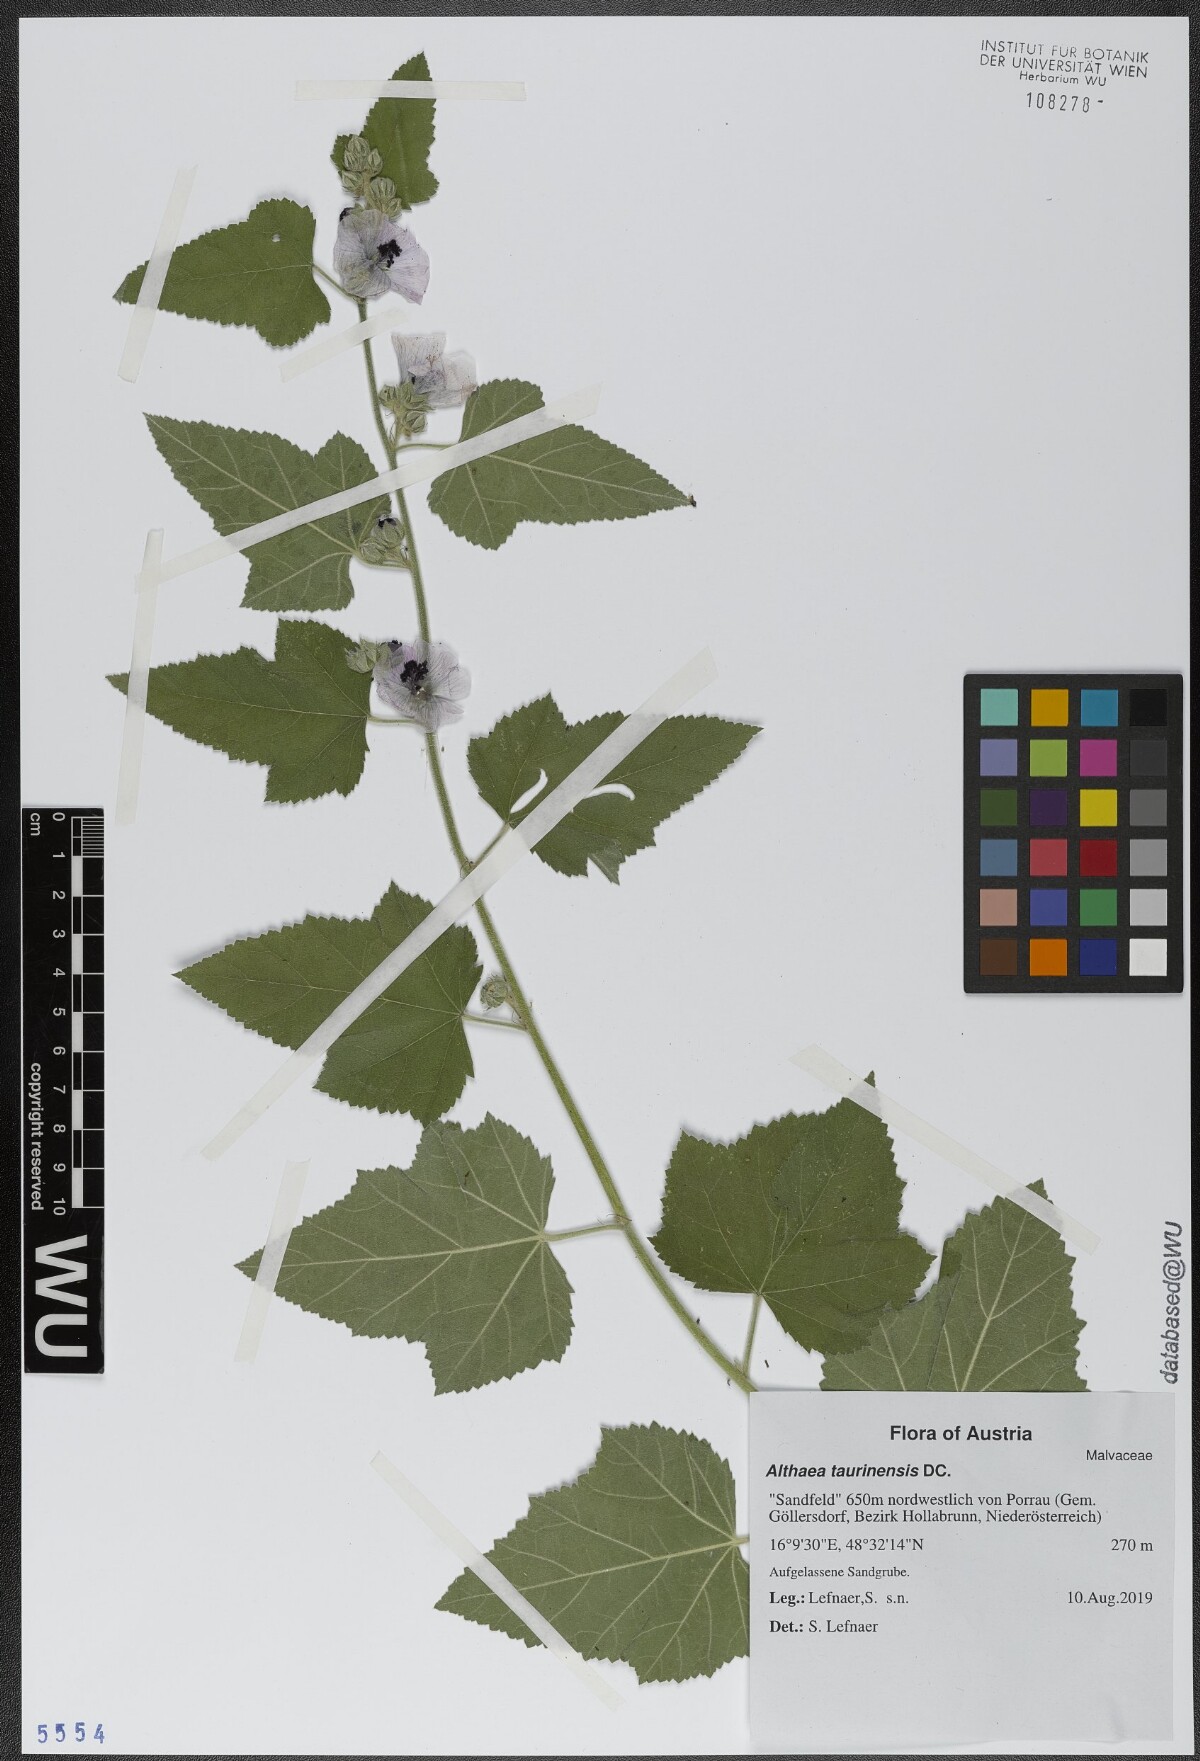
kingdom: Plantae
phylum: Tracheophyta
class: Magnoliopsida
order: Malvales
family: Malvaceae
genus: Althaea
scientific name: Althaea taurinensis
